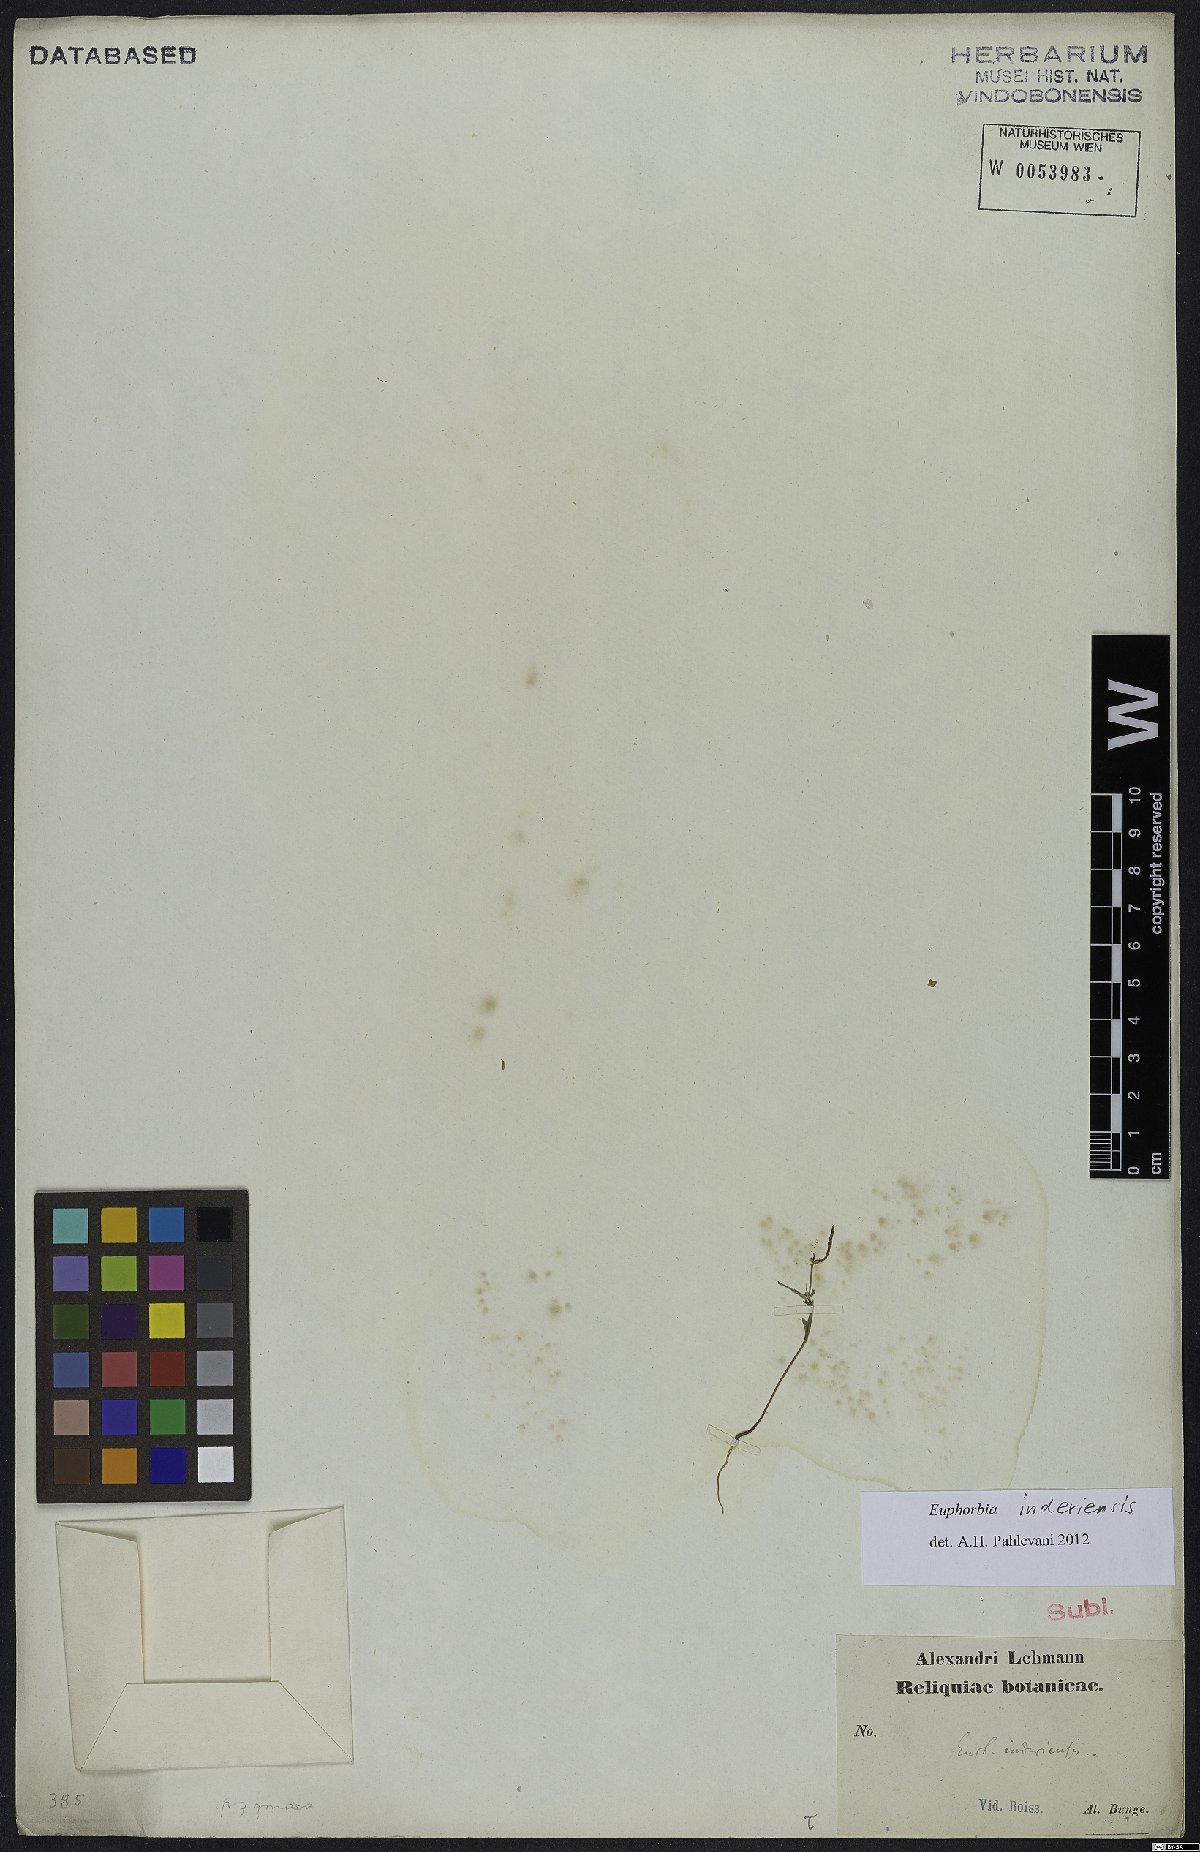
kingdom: Plantae
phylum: Tracheophyta
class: Magnoliopsida
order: Malpighiales
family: Euphorbiaceae
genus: Euphorbia
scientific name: Euphorbia inderiensis
